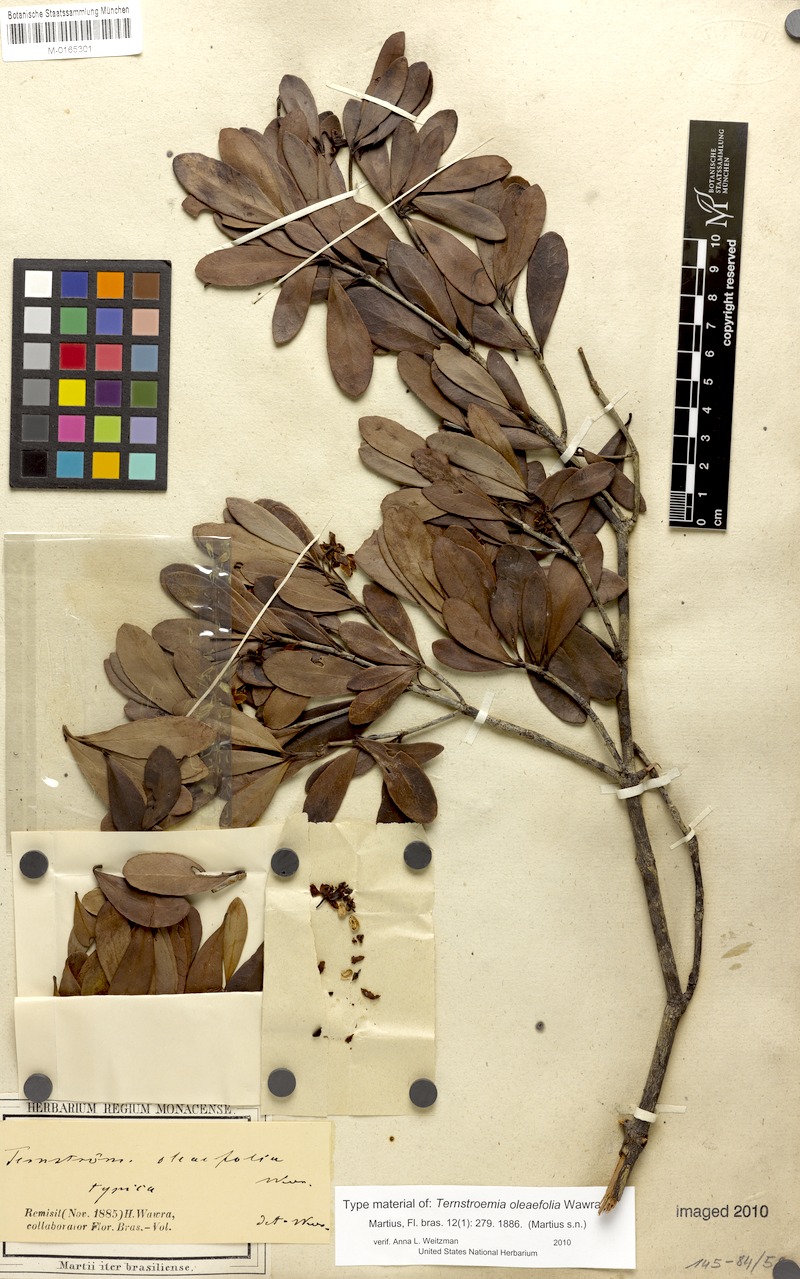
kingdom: Plantae
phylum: Tracheophyta
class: Magnoliopsida
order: Ericales
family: Pentaphylacaceae
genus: Ternstroemia
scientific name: Ternstroemia oleifolia
